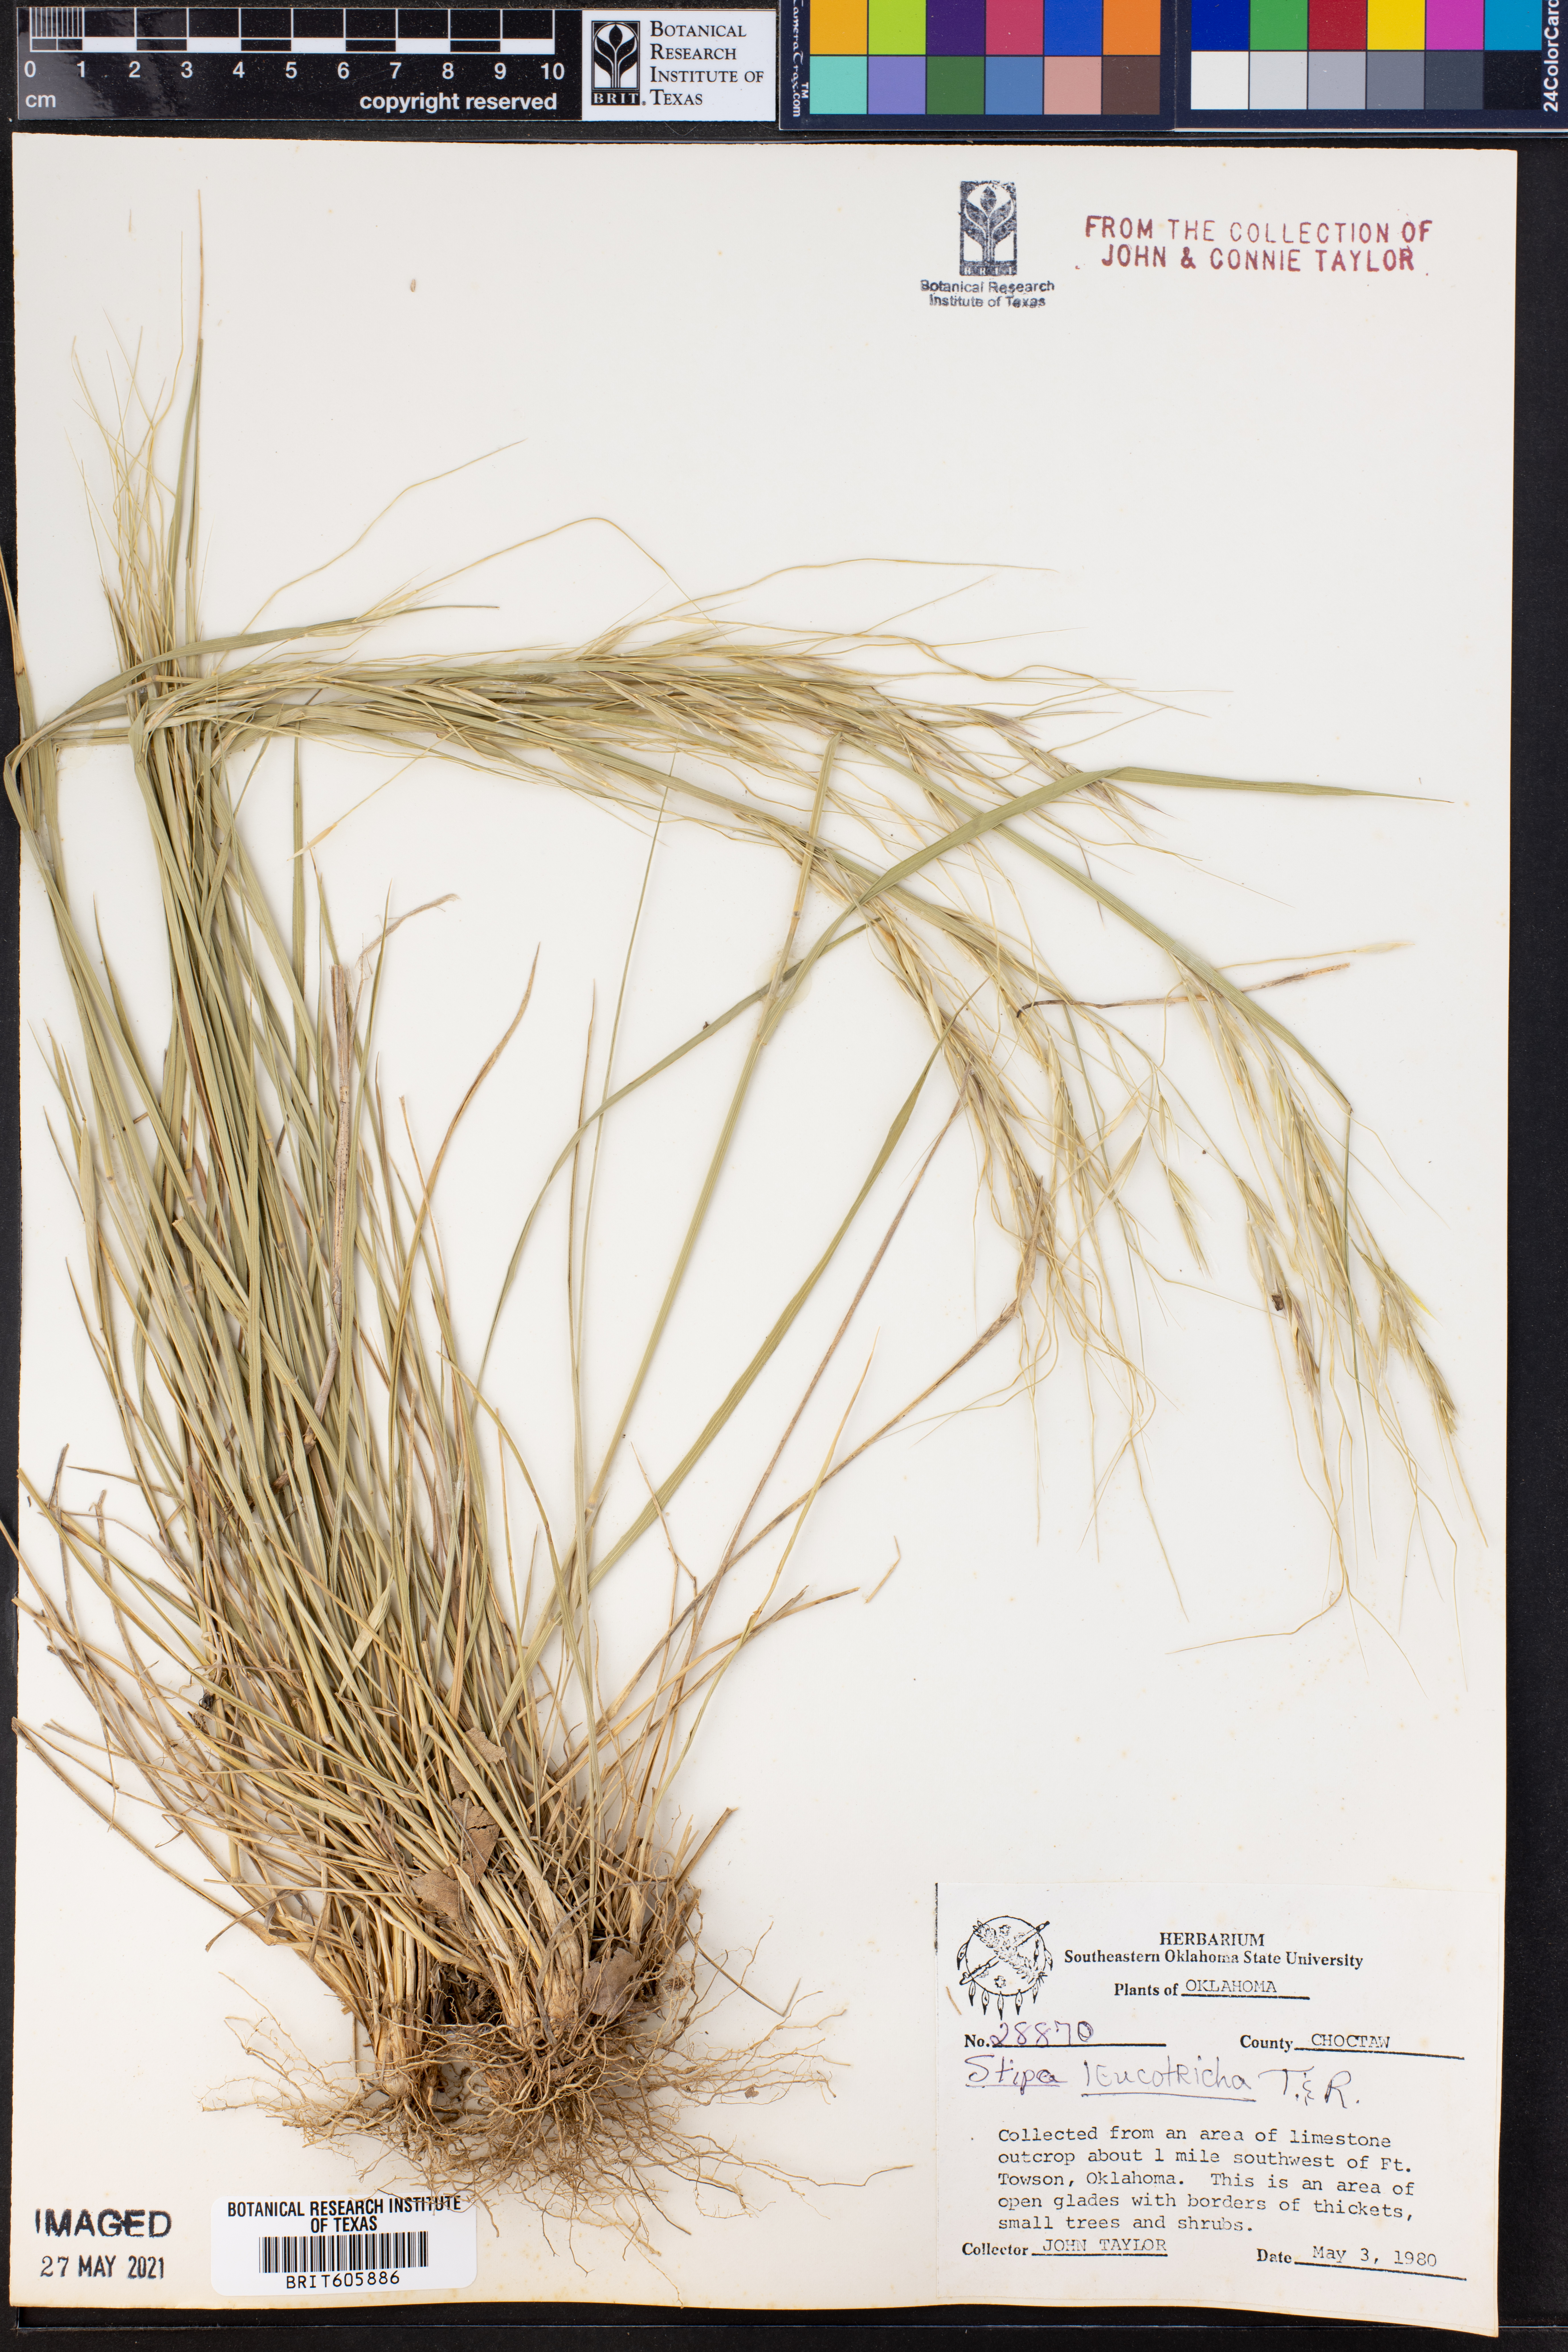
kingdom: Plantae
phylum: Tracheophyta
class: Liliopsida
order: Poales
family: Poaceae
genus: Nassella
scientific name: Nassella leucotricha
